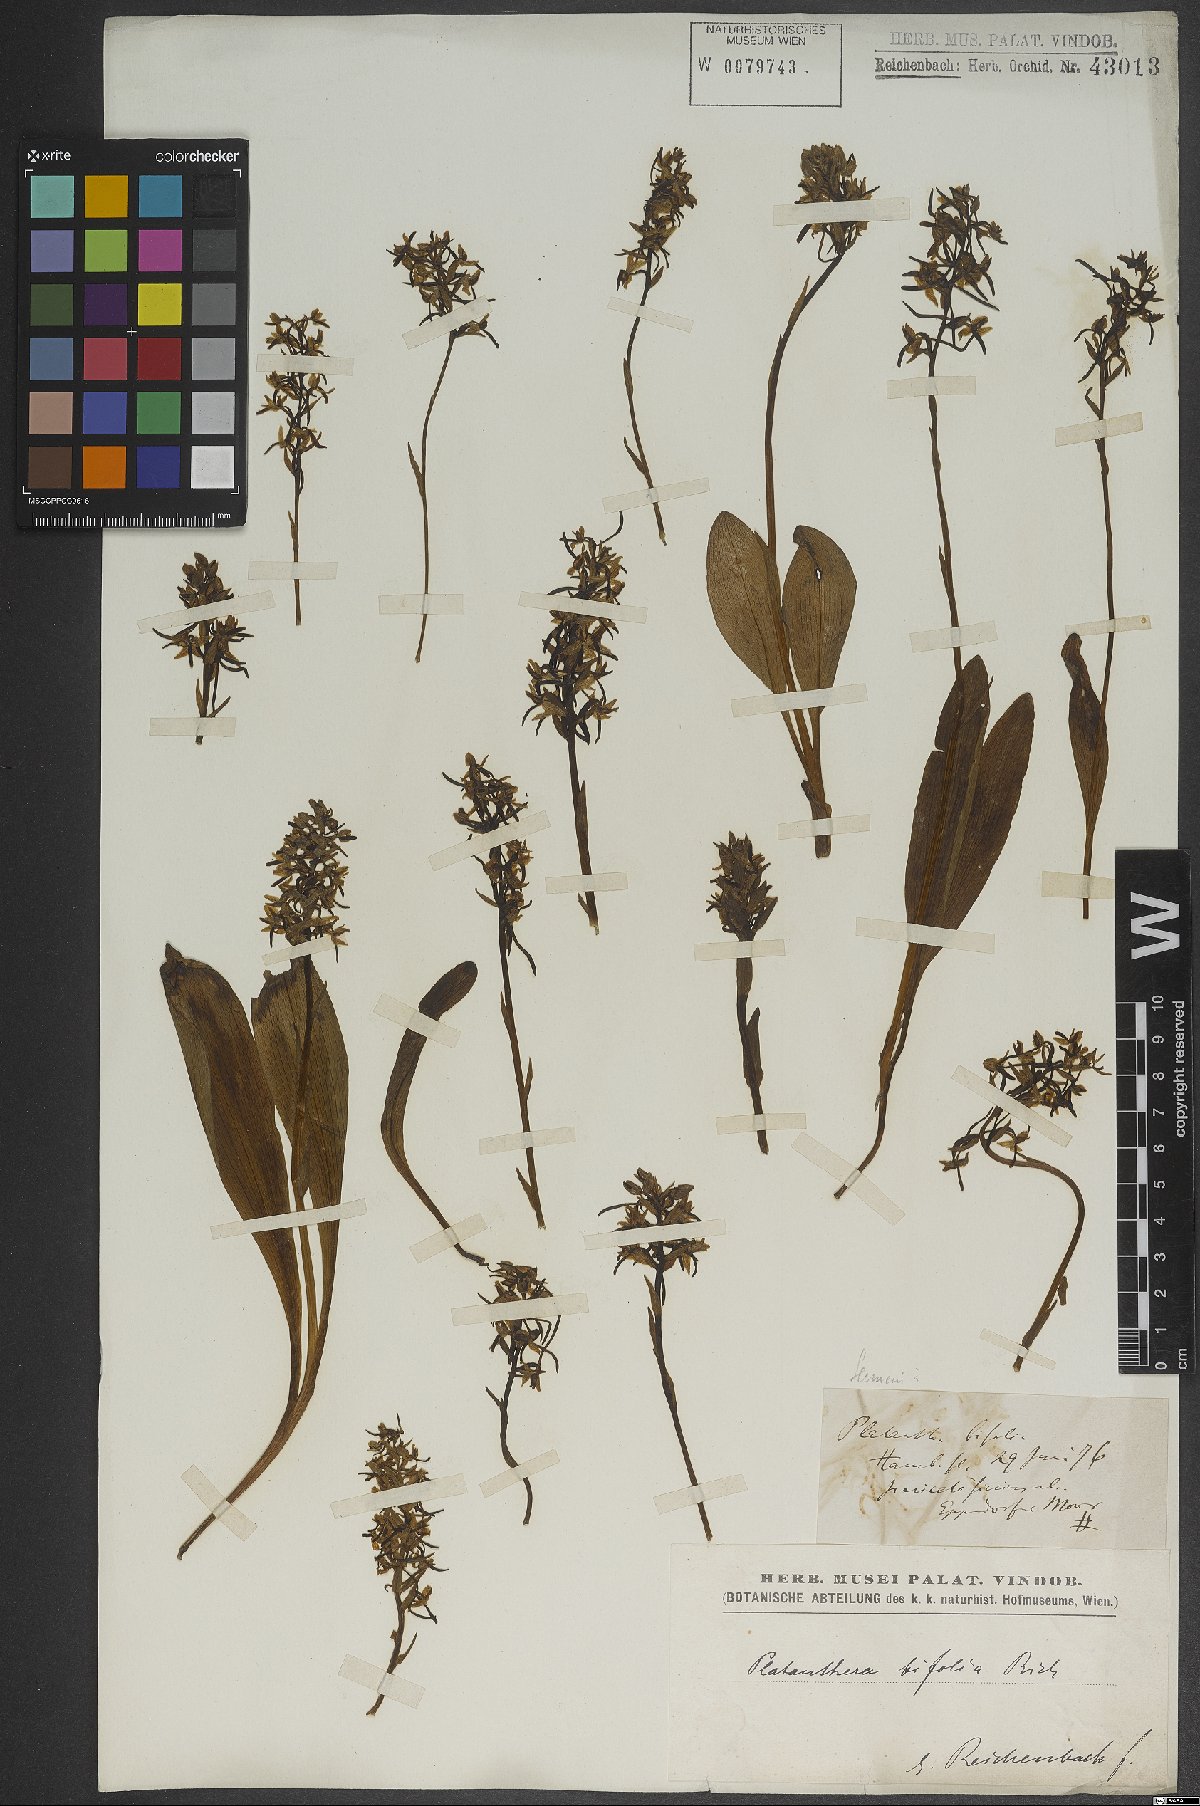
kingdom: Plantae
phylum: Tracheophyta
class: Liliopsida
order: Asparagales
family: Orchidaceae
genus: Platanthera
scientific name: Platanthera bifolia
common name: Lesser butterfly-orchid
